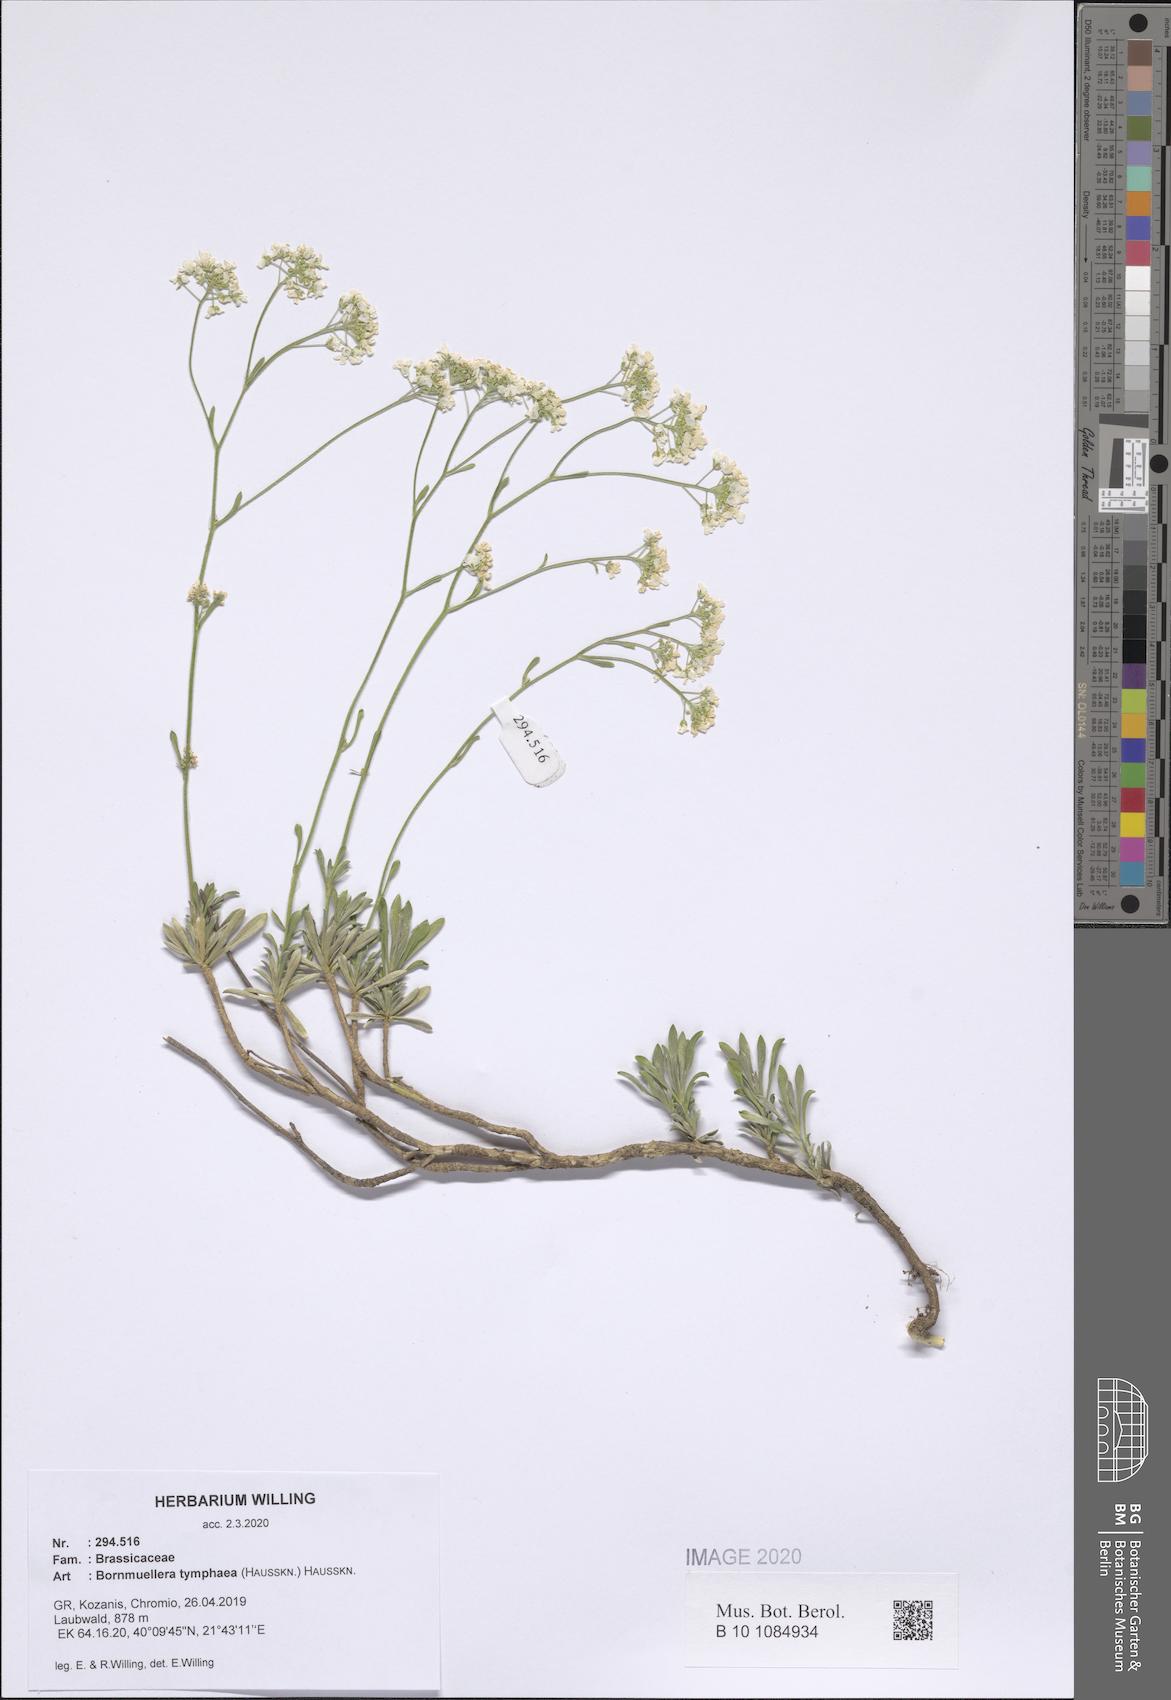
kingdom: Plantae
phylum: Tracheophyta
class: Magnoliopsida
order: Brassicales
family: Brassicaceae
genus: Bornmuellera
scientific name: Bornmuellera tymphaea
